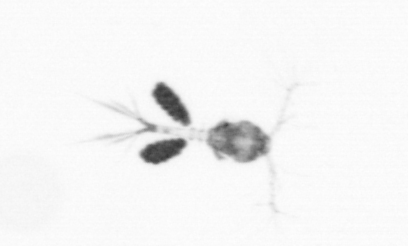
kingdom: Animalia
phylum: Arthropoda
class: Copepoda
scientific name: Copepoda
